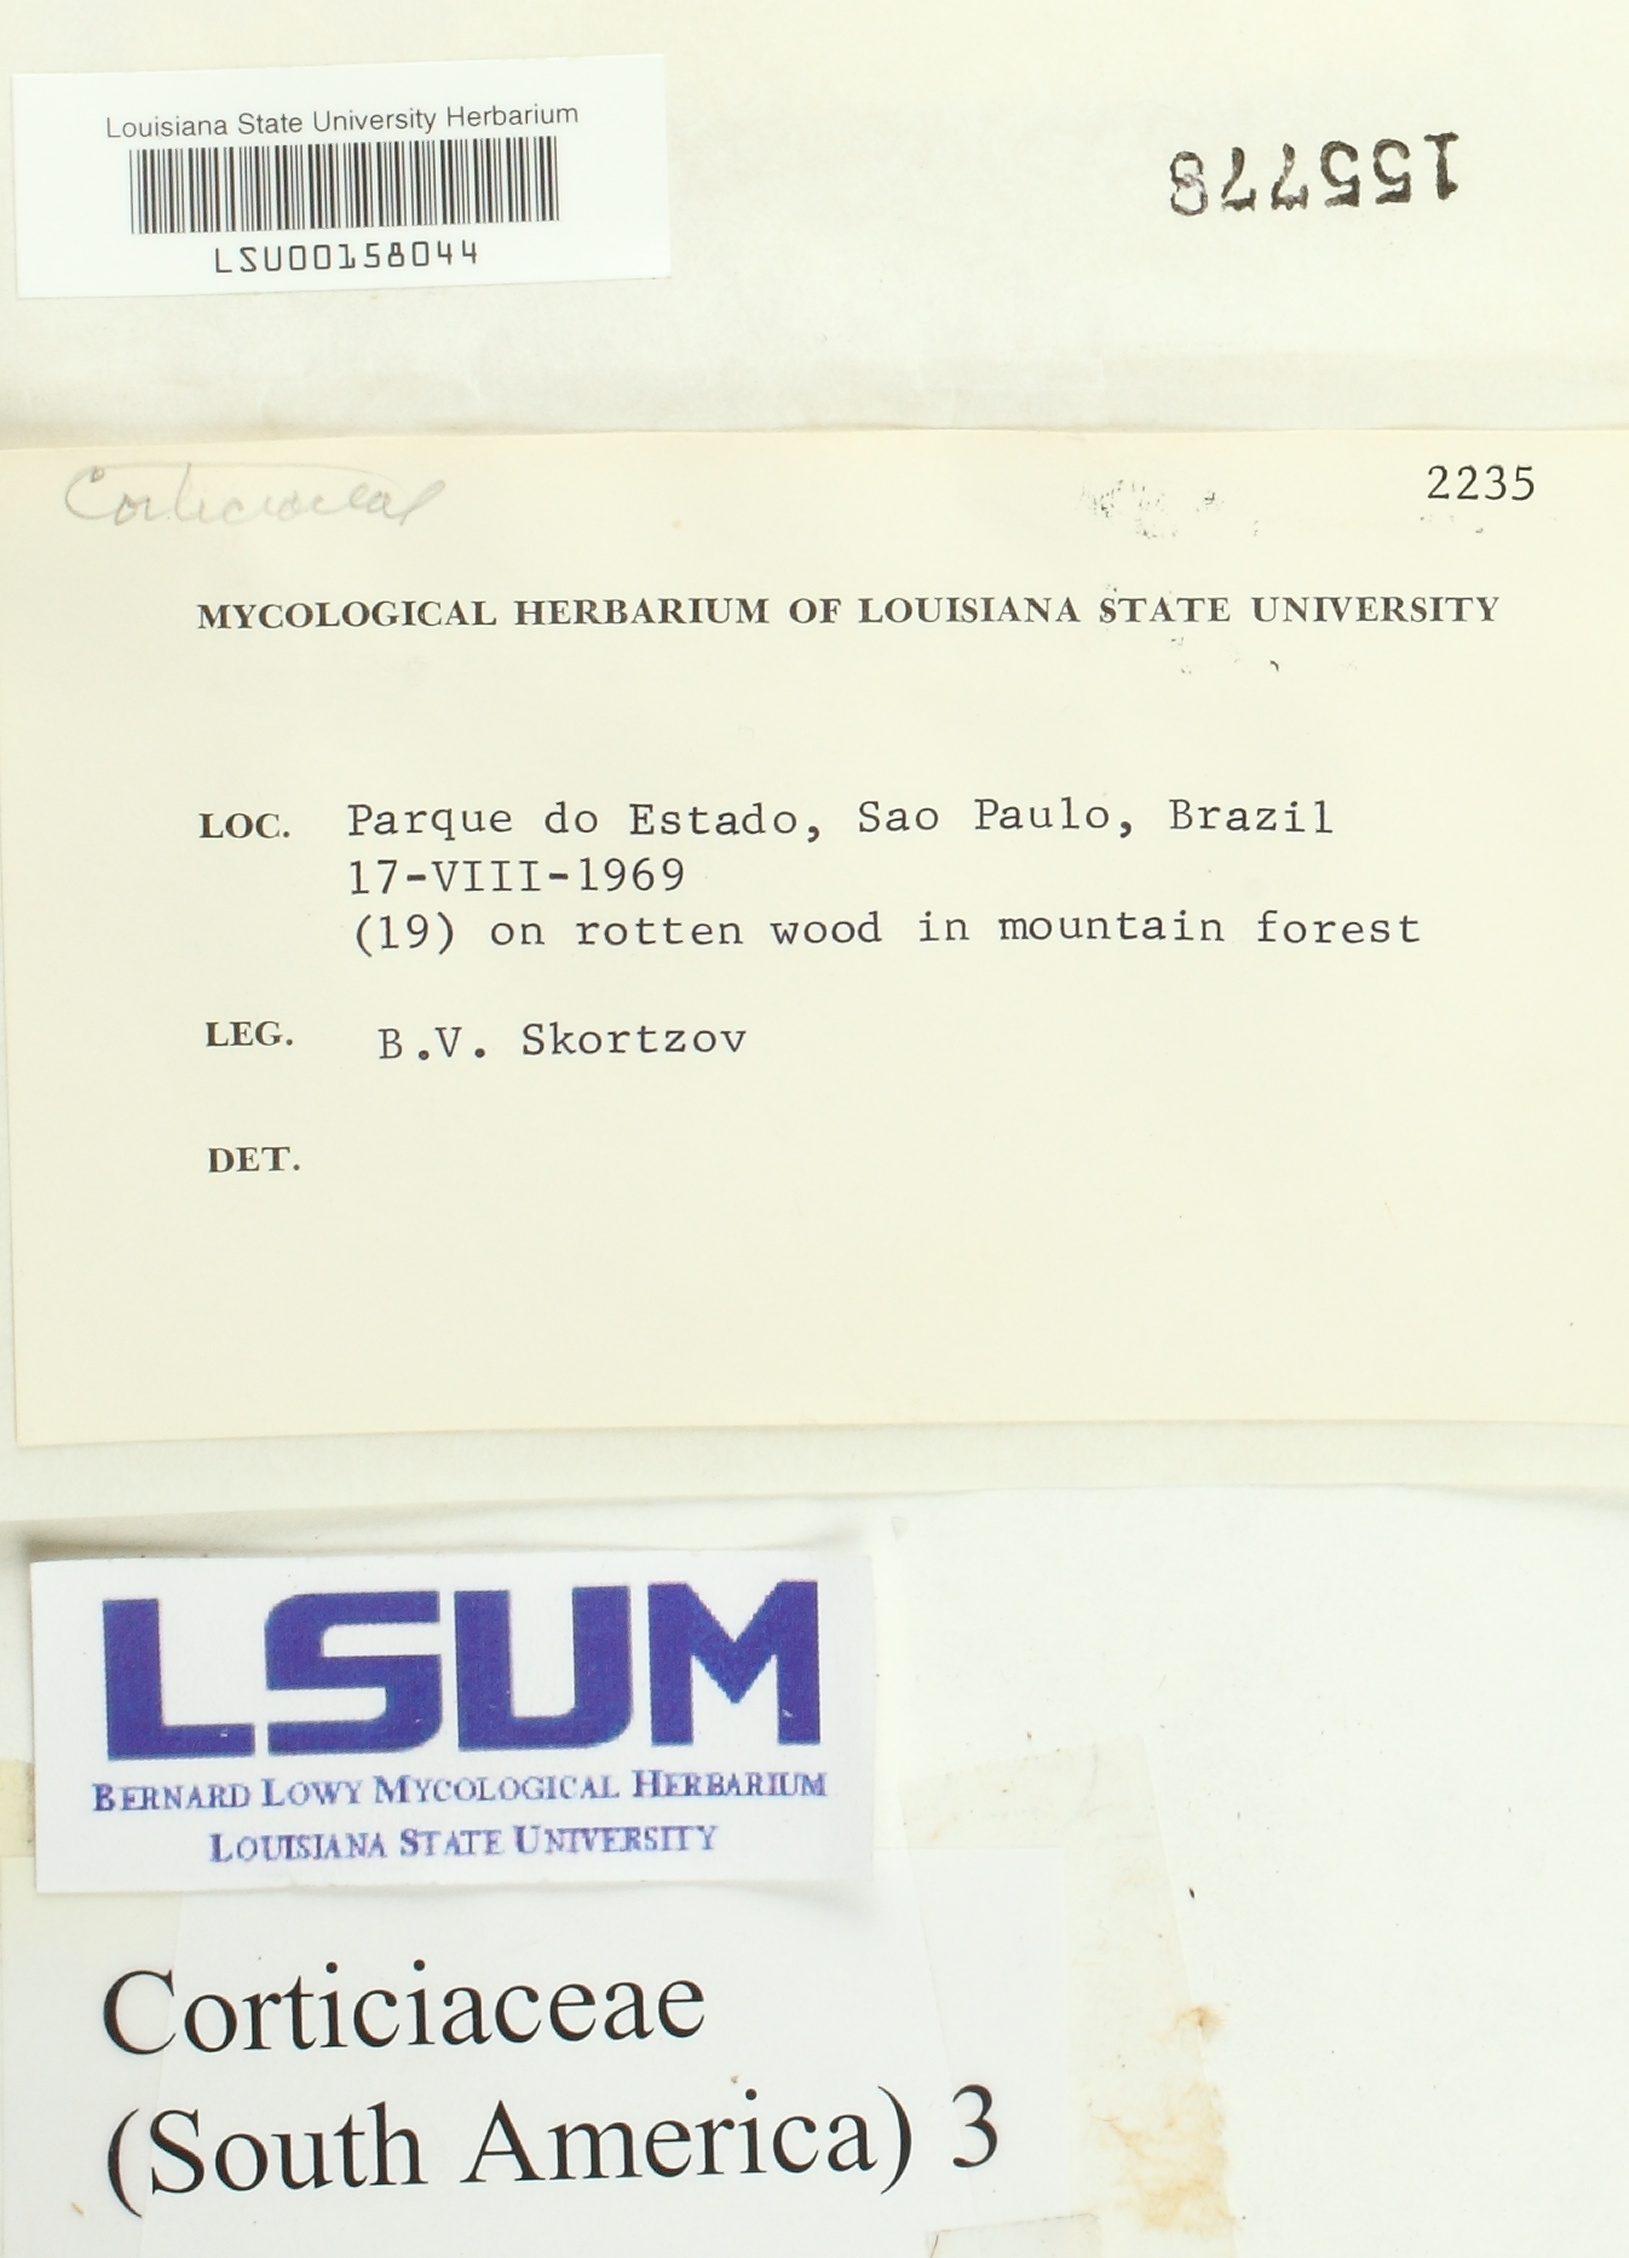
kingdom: Fungi
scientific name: Fungi
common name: Fungi
